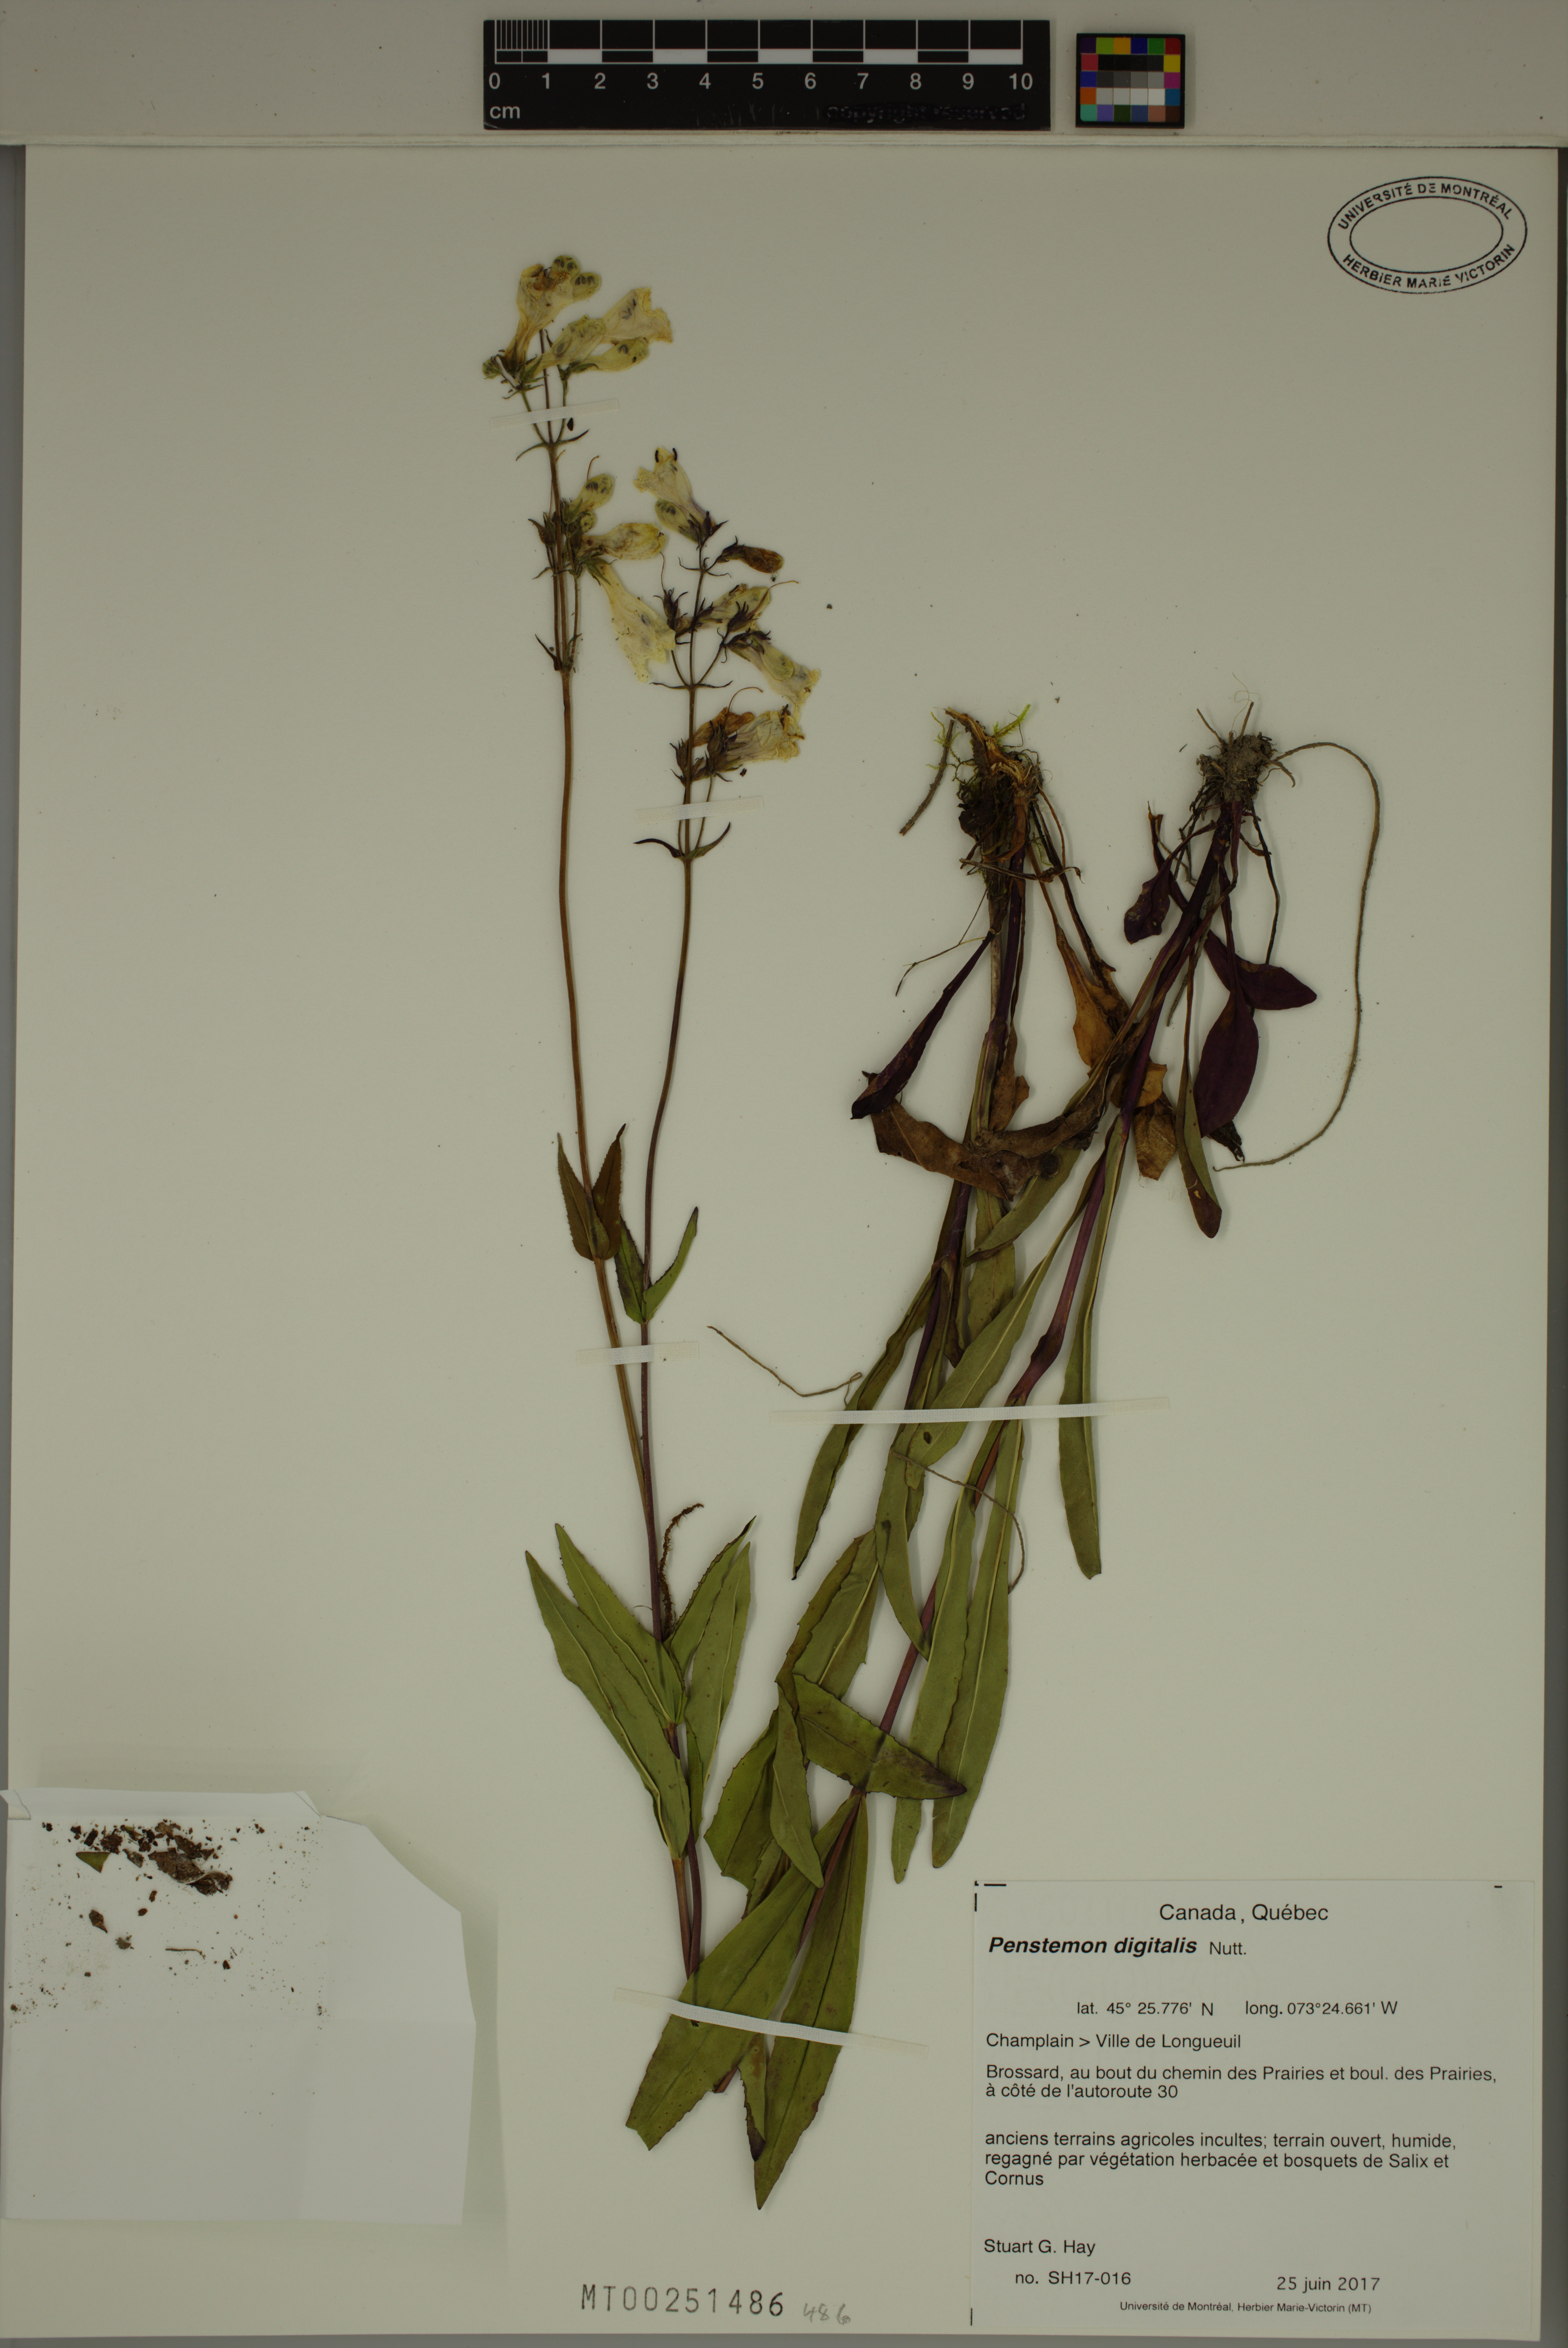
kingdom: Plantae
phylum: Tracheophyta
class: Magnoliopsida
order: Lamiales
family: Plantaginaceae
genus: Penstemon
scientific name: Penstemon digitalis
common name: Foxglove beardtongue
